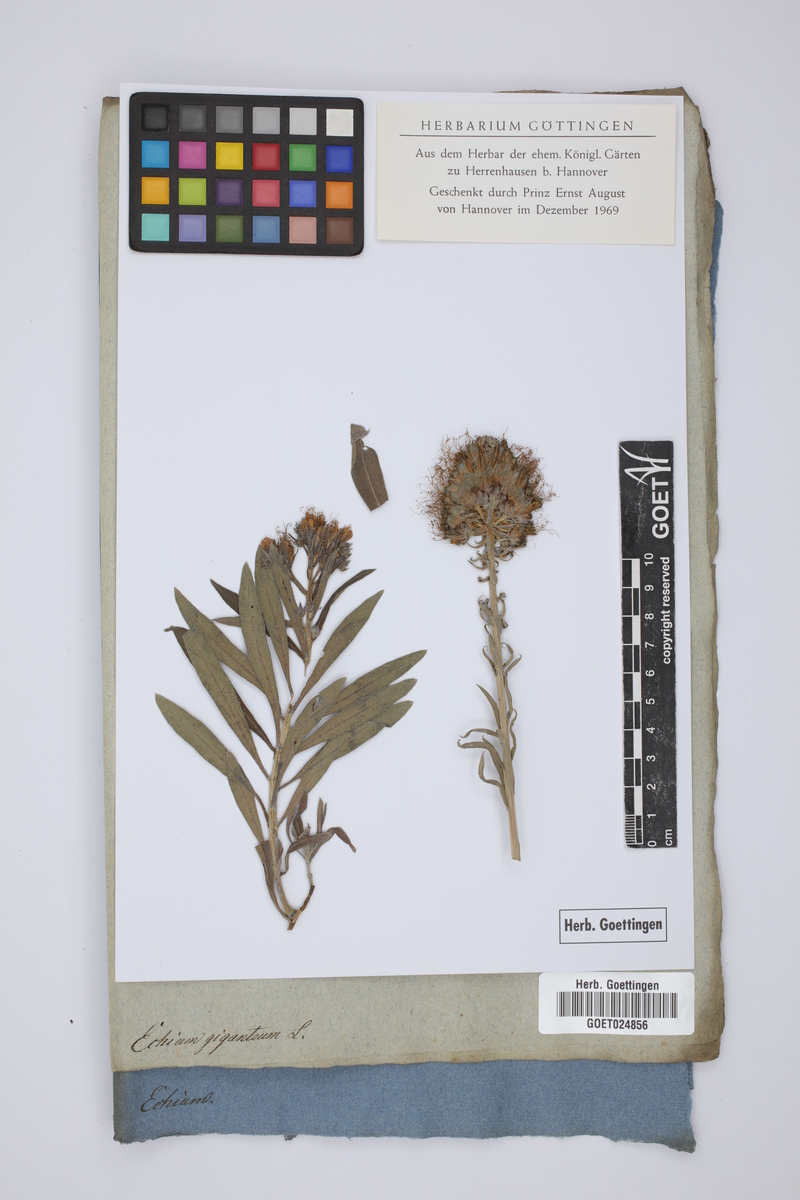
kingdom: Plantae
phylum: Tracheophyta
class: Magnoliopsida
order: Boraginales
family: Boraginaceae
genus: Echium
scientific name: Echium giganteum
